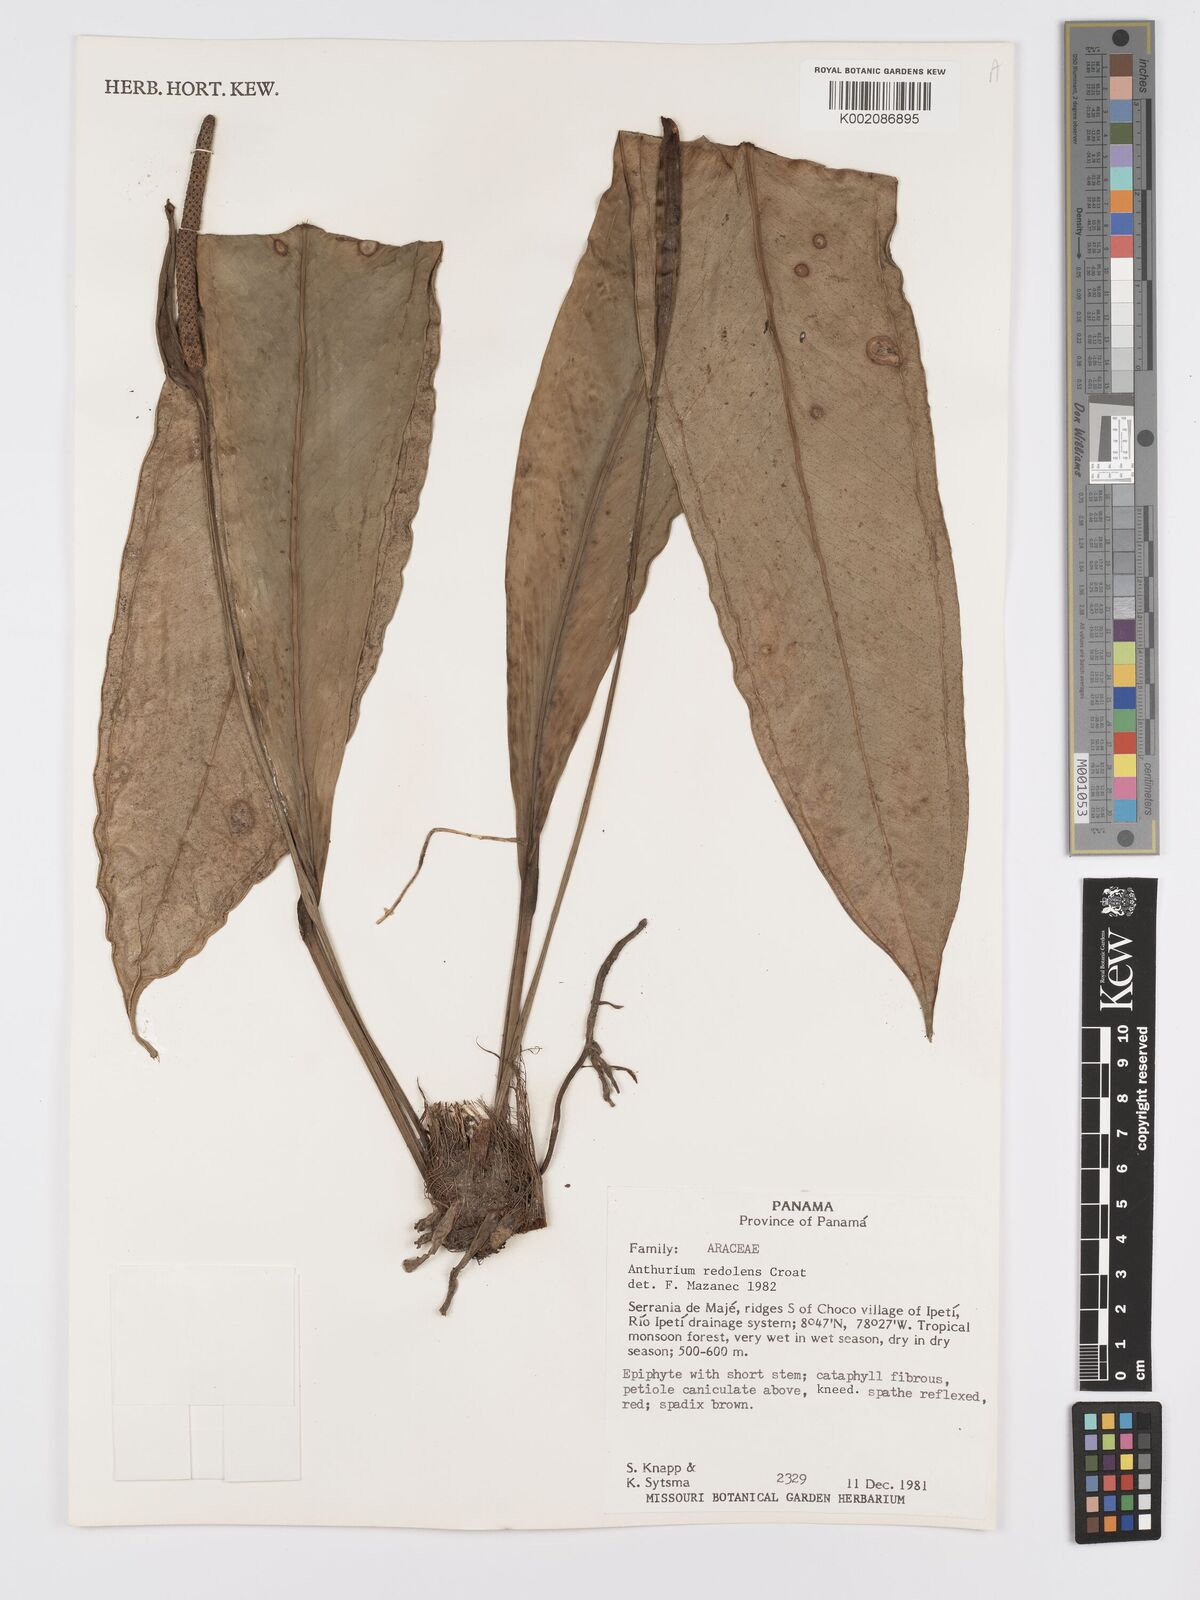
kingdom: Plantae
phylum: Tracheophyta
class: Liliopsida
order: Alismatales
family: Araceae
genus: Anthurium
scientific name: Anthurium redolens
